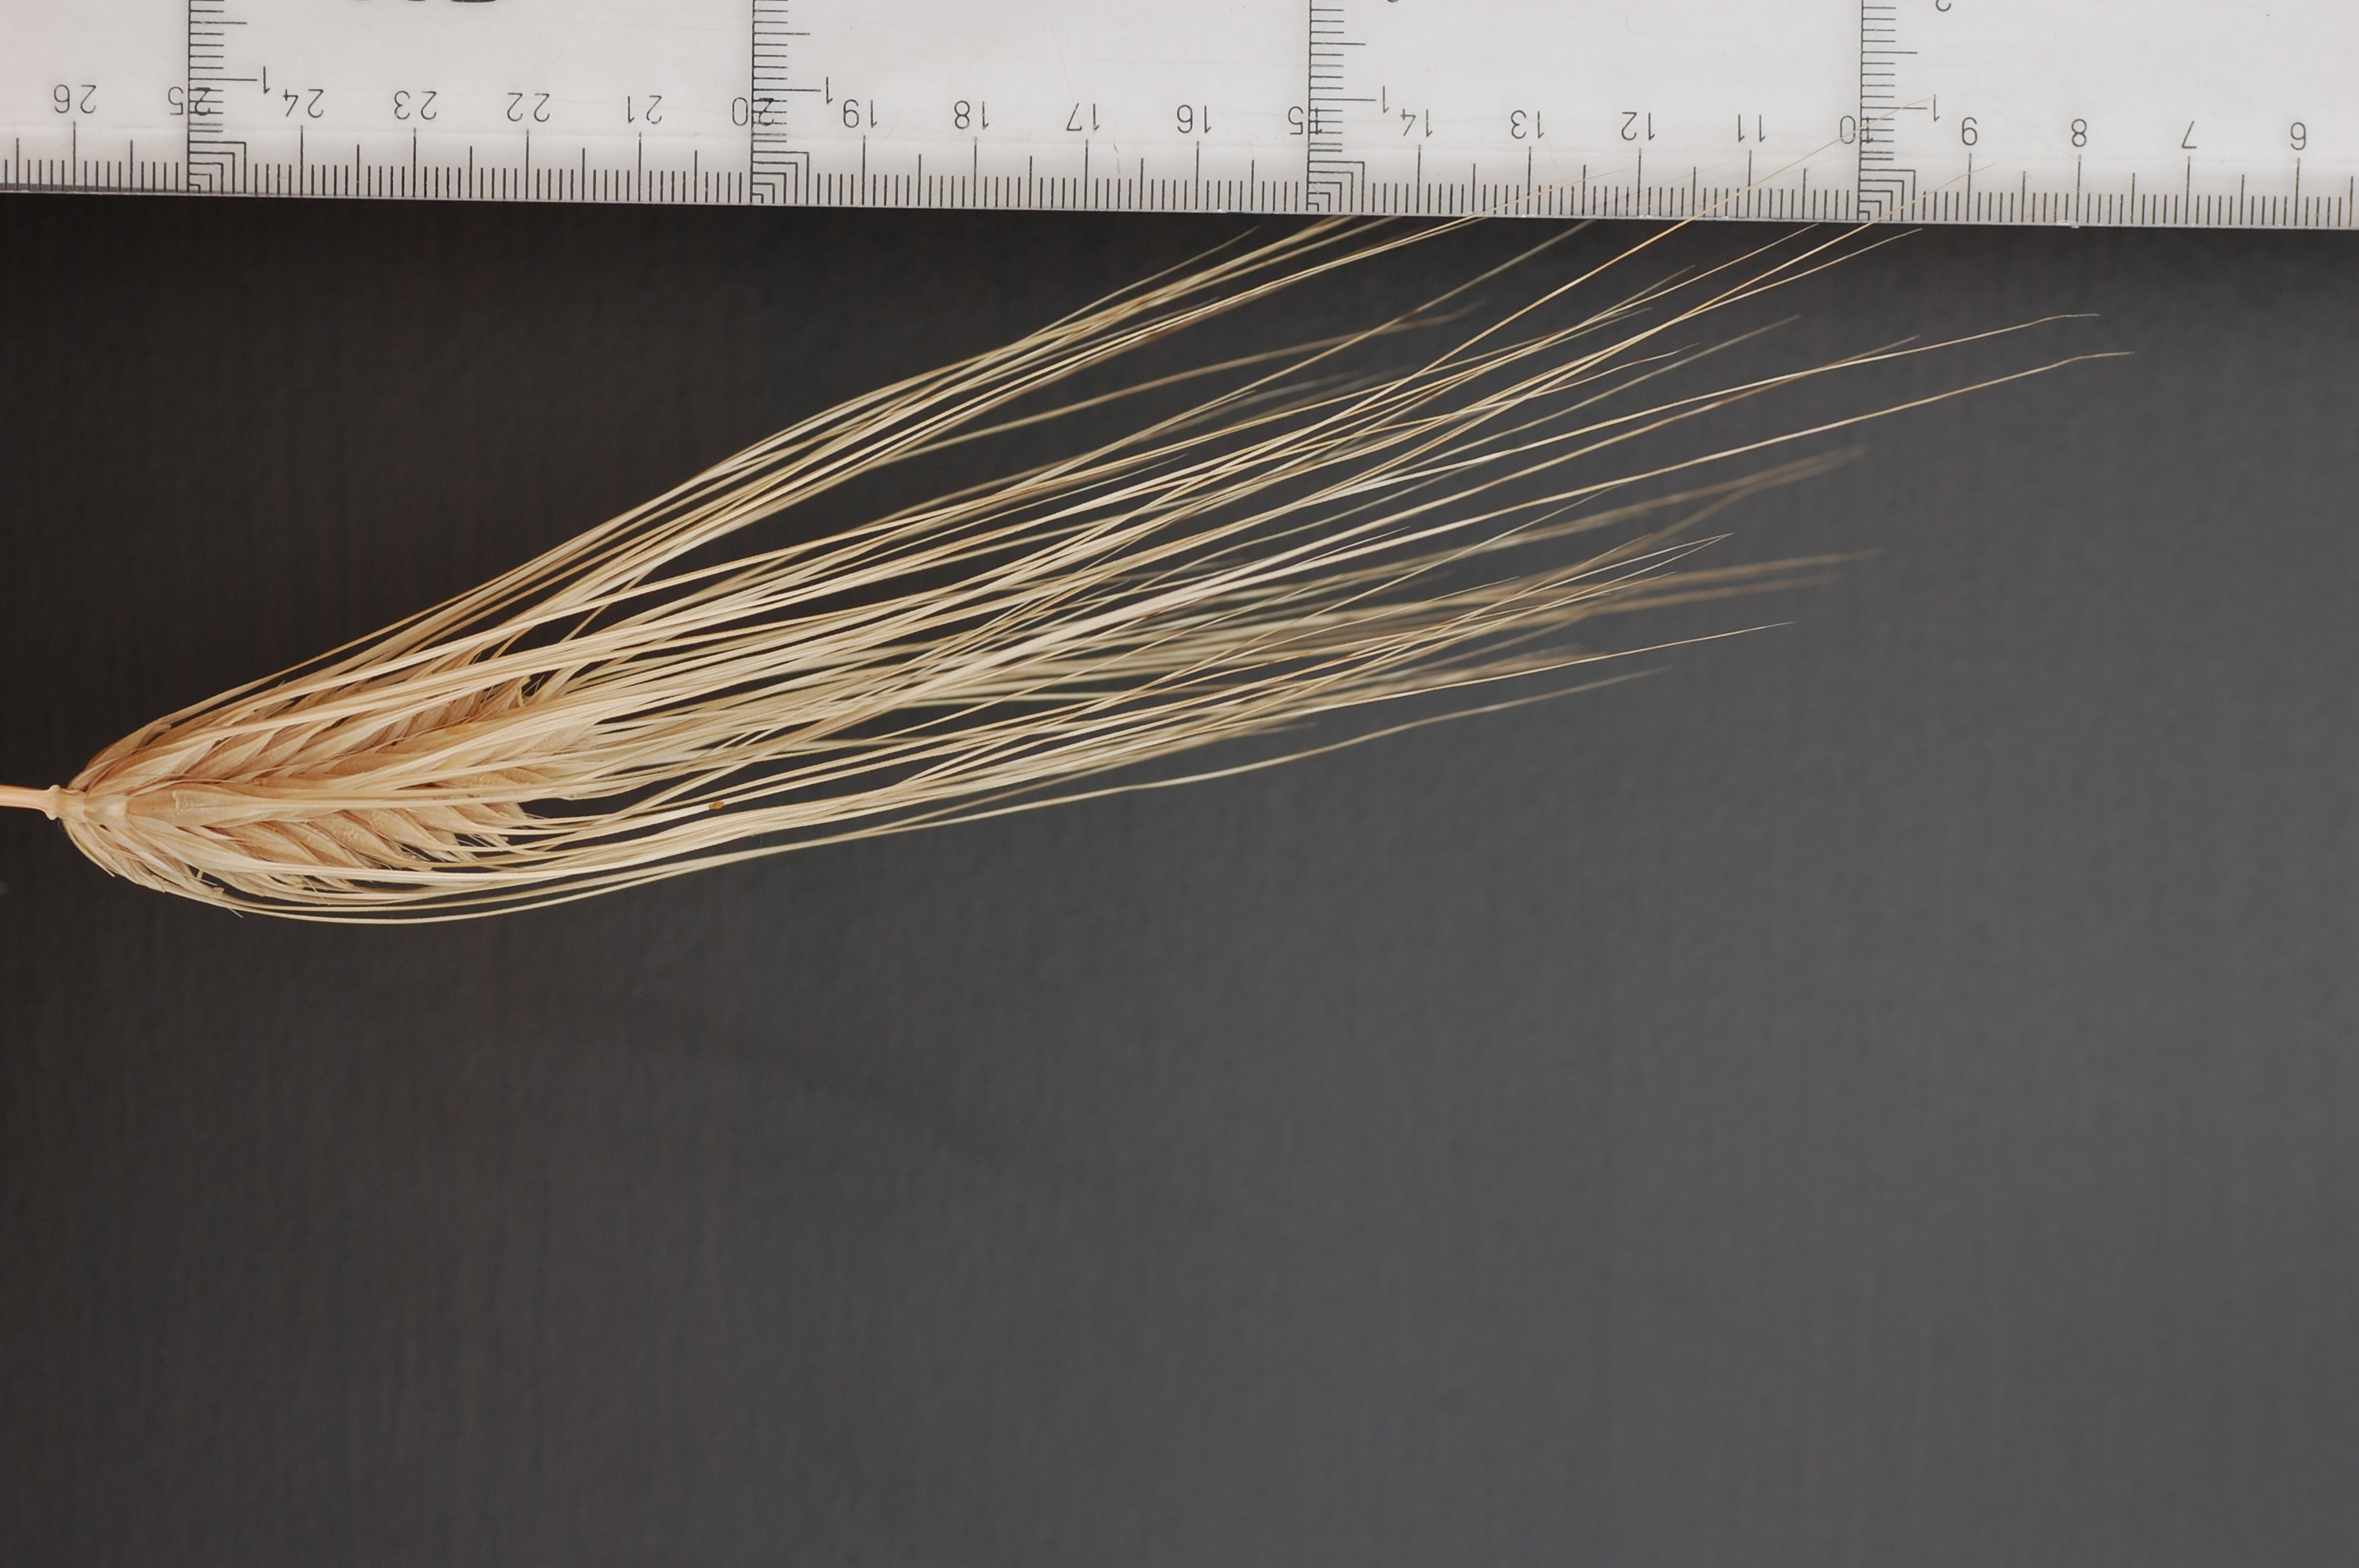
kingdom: Plantae
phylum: Tracheophyta
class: Liliopsida
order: Poales
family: Poaceae
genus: Hordeum
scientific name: Hordeum vulgare
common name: Common barley
